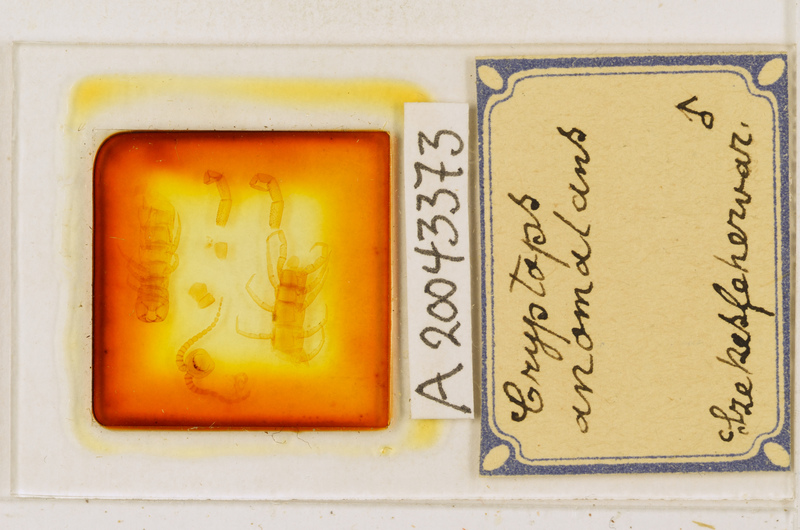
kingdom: Animalia
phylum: Arthropoda
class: Chilopoda
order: Scolopendromorpha
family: Cryptopidae
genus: Cryptops
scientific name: Cryptops anomalans
